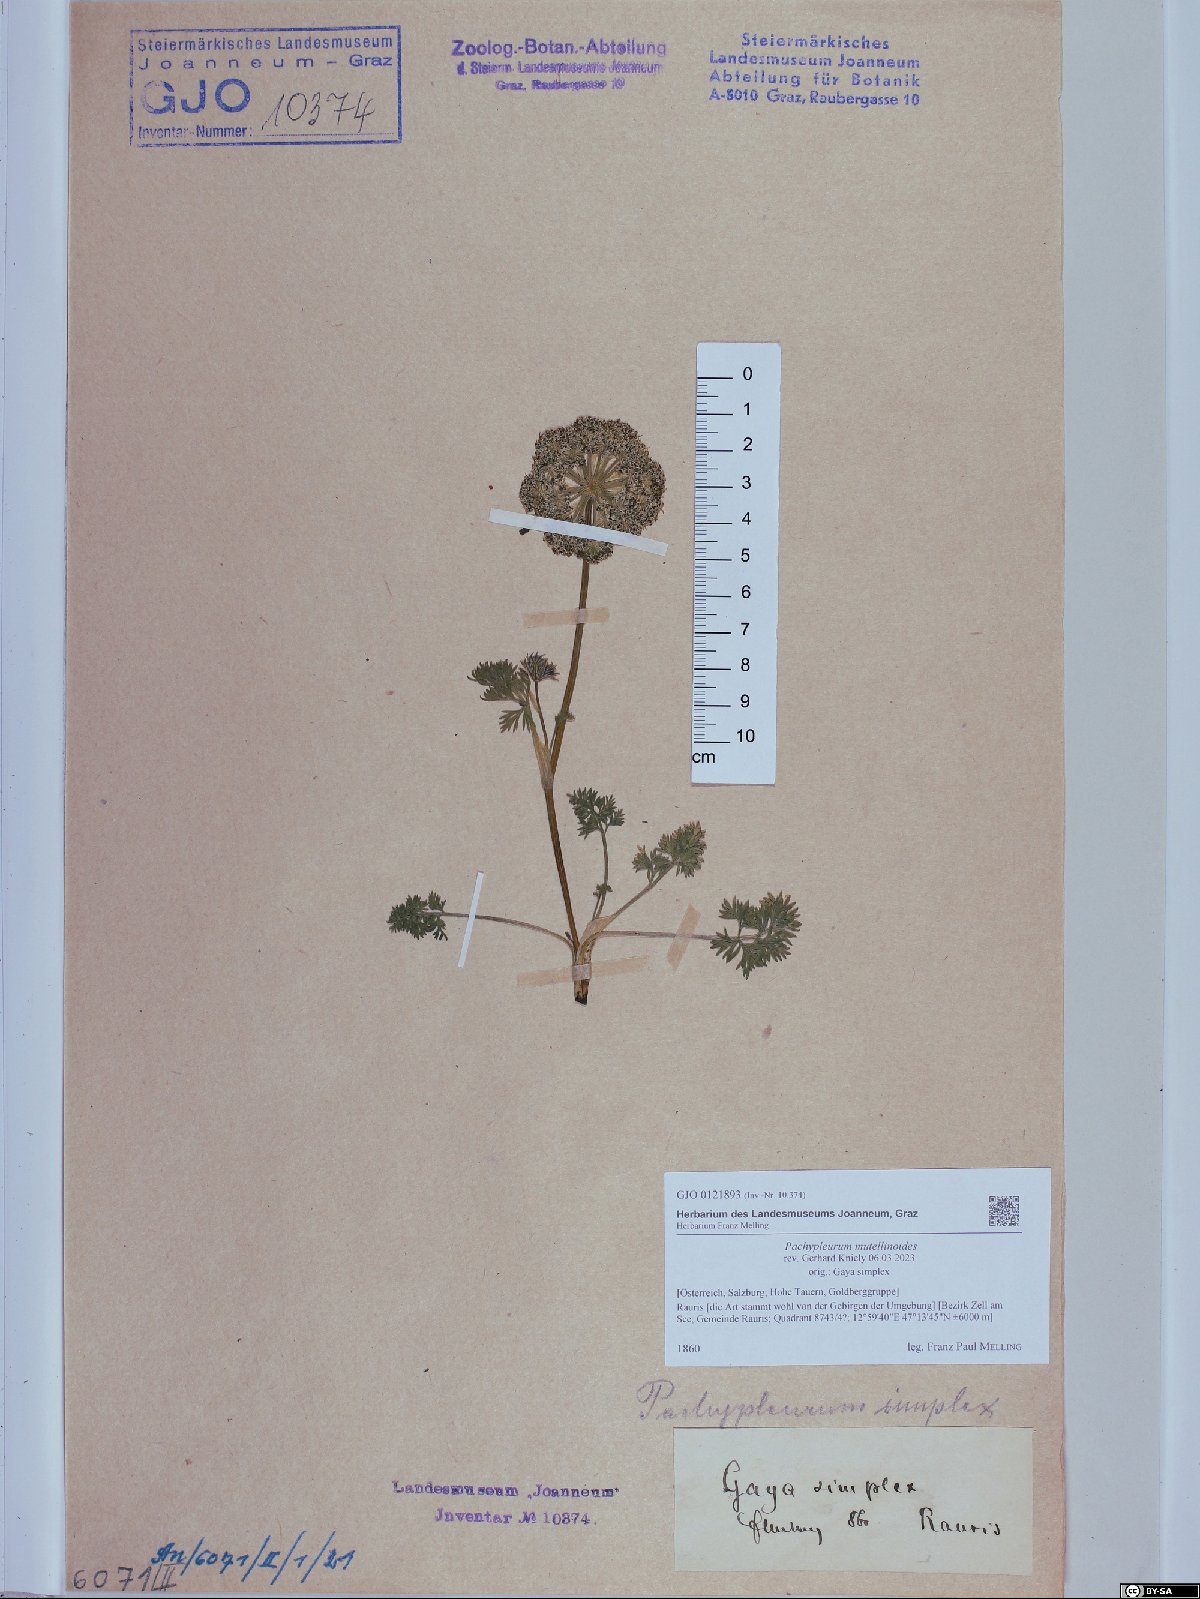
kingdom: Plantae
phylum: Tracheophyta
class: Magnoliopsida
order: Apiales
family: Apiaceae
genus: Pachypleurum
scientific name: Pachypleurum mutellinoides
